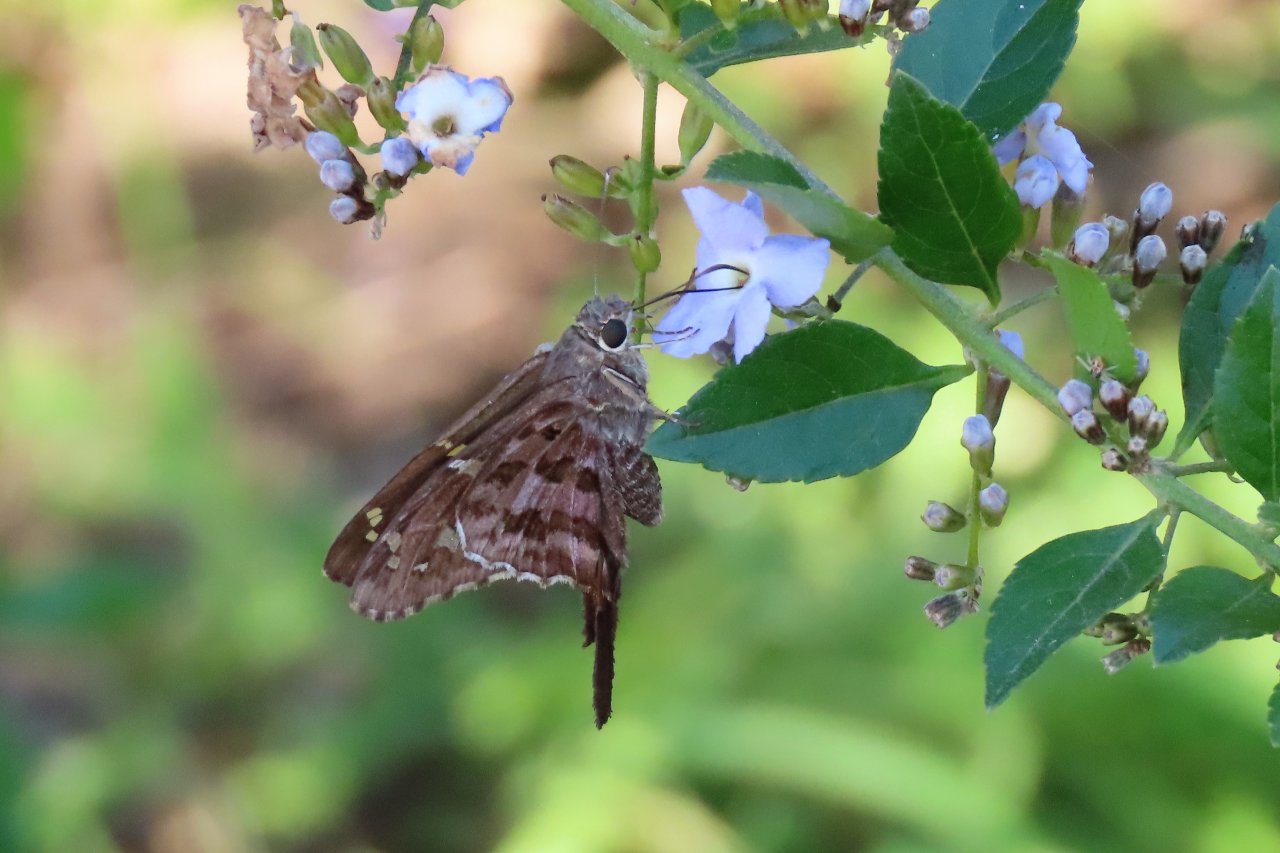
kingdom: Animalia
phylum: Arthropoda
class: Insecta
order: Lepidoptera
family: Hesperiidae
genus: Urbanus
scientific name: Urbanus dorantes
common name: Dorantes Longtail
